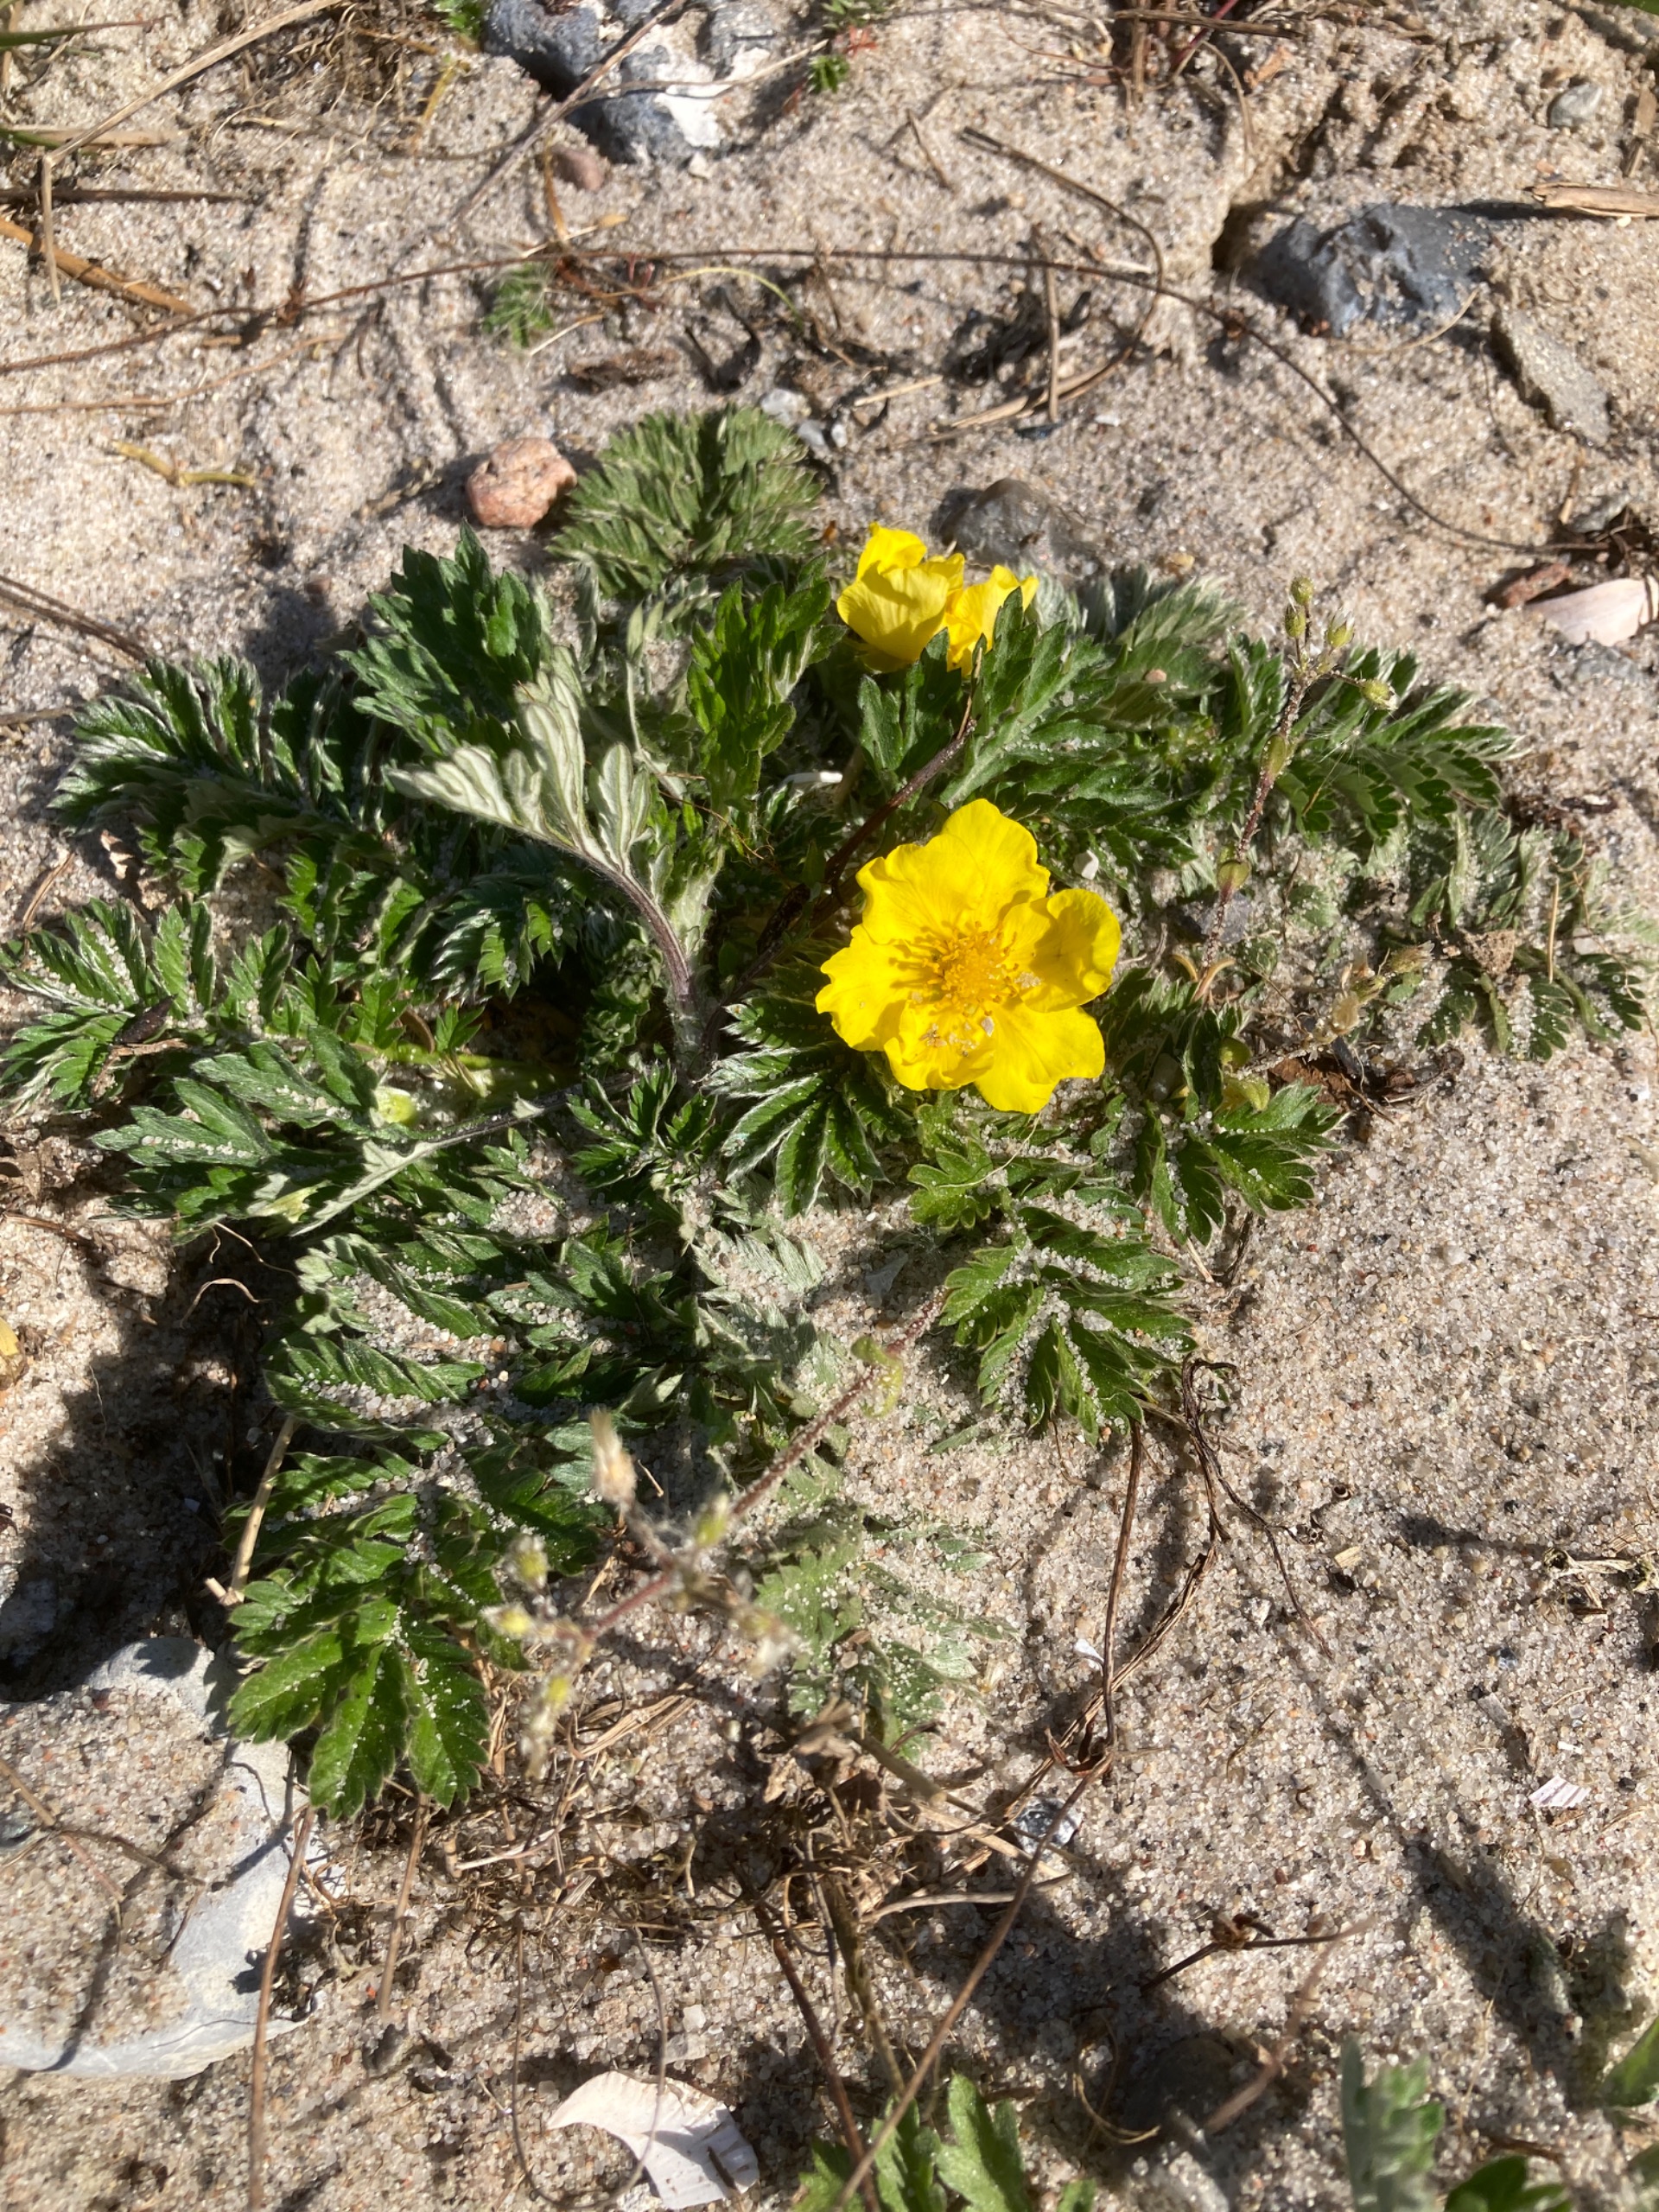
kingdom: Plantae
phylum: Tracheophyta
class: Magnoliopsida
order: Rosales
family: Rosaceae
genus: Argentina
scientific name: Argentina anserina
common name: Gåsepotentil
